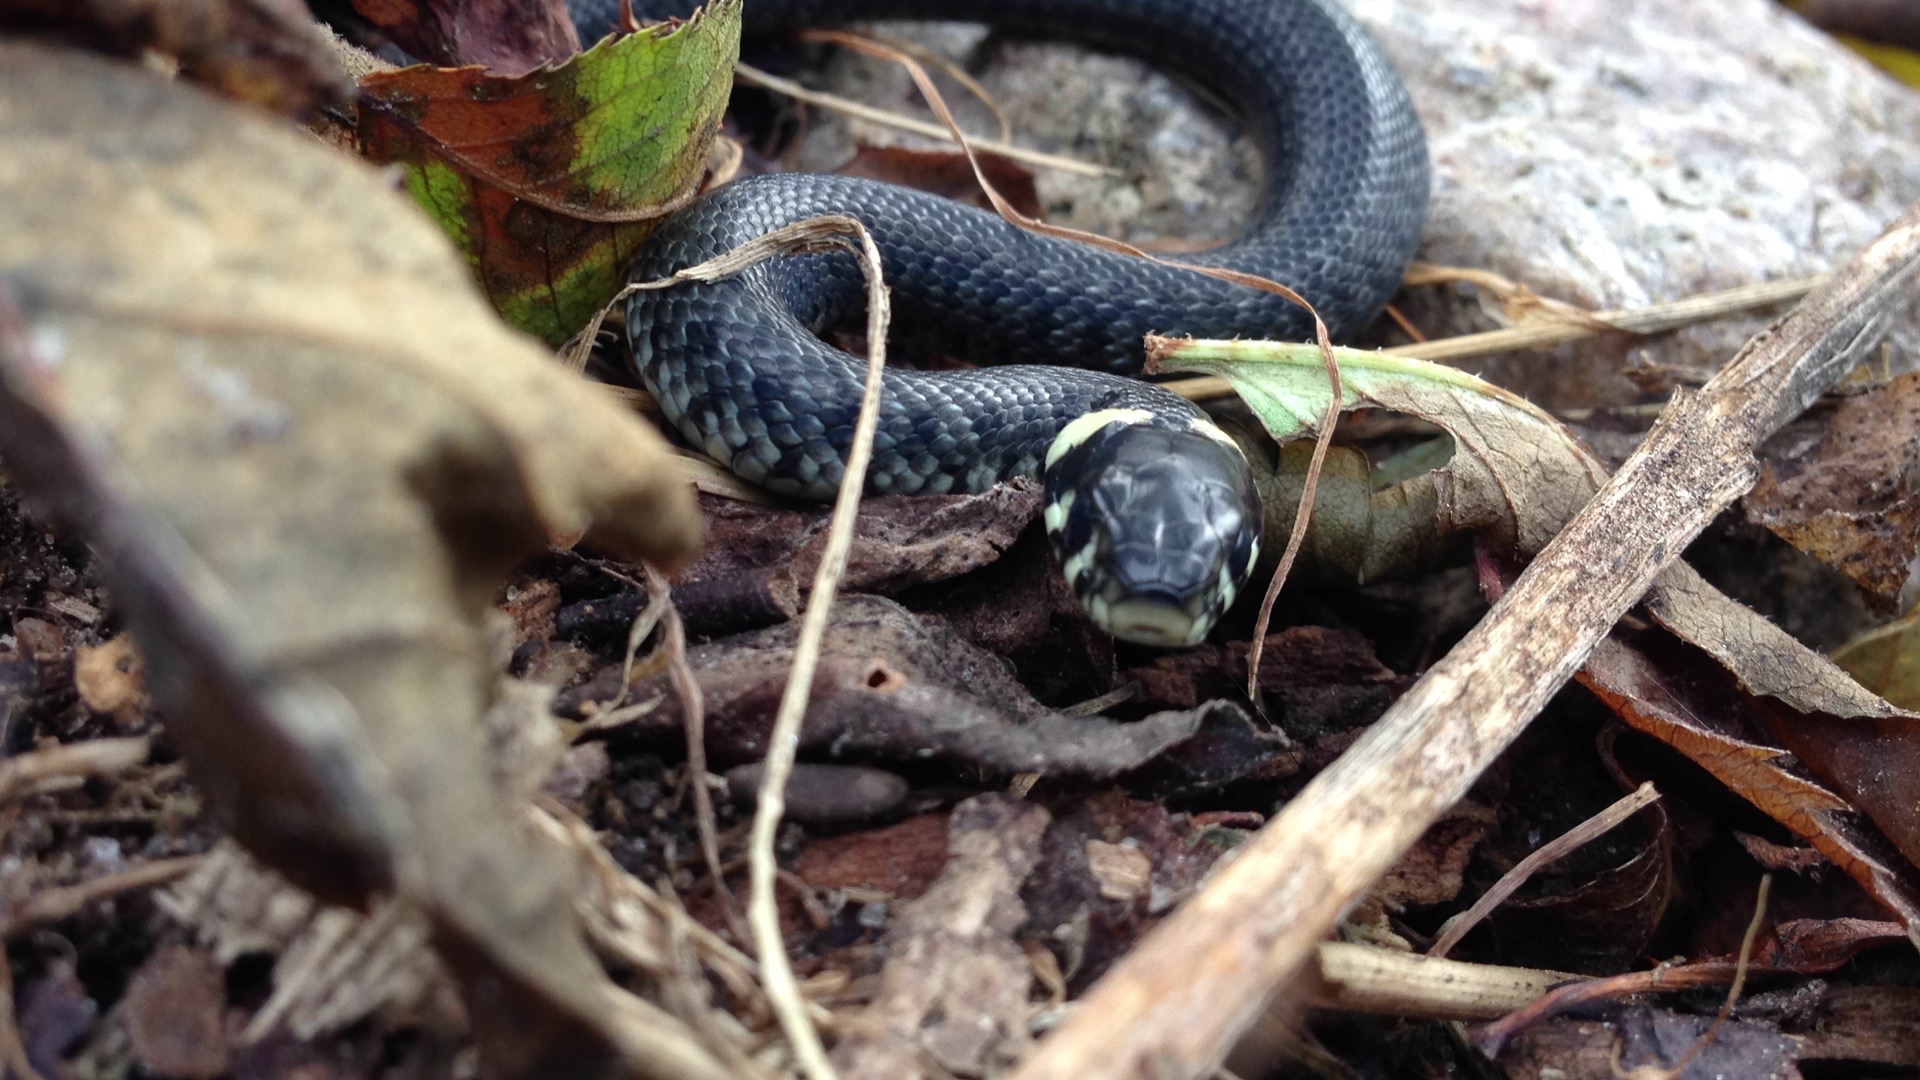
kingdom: Animalia
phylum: Chordata
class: Squamata
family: Colubridae
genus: Natrix
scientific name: Natrix natrix
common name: Snog
